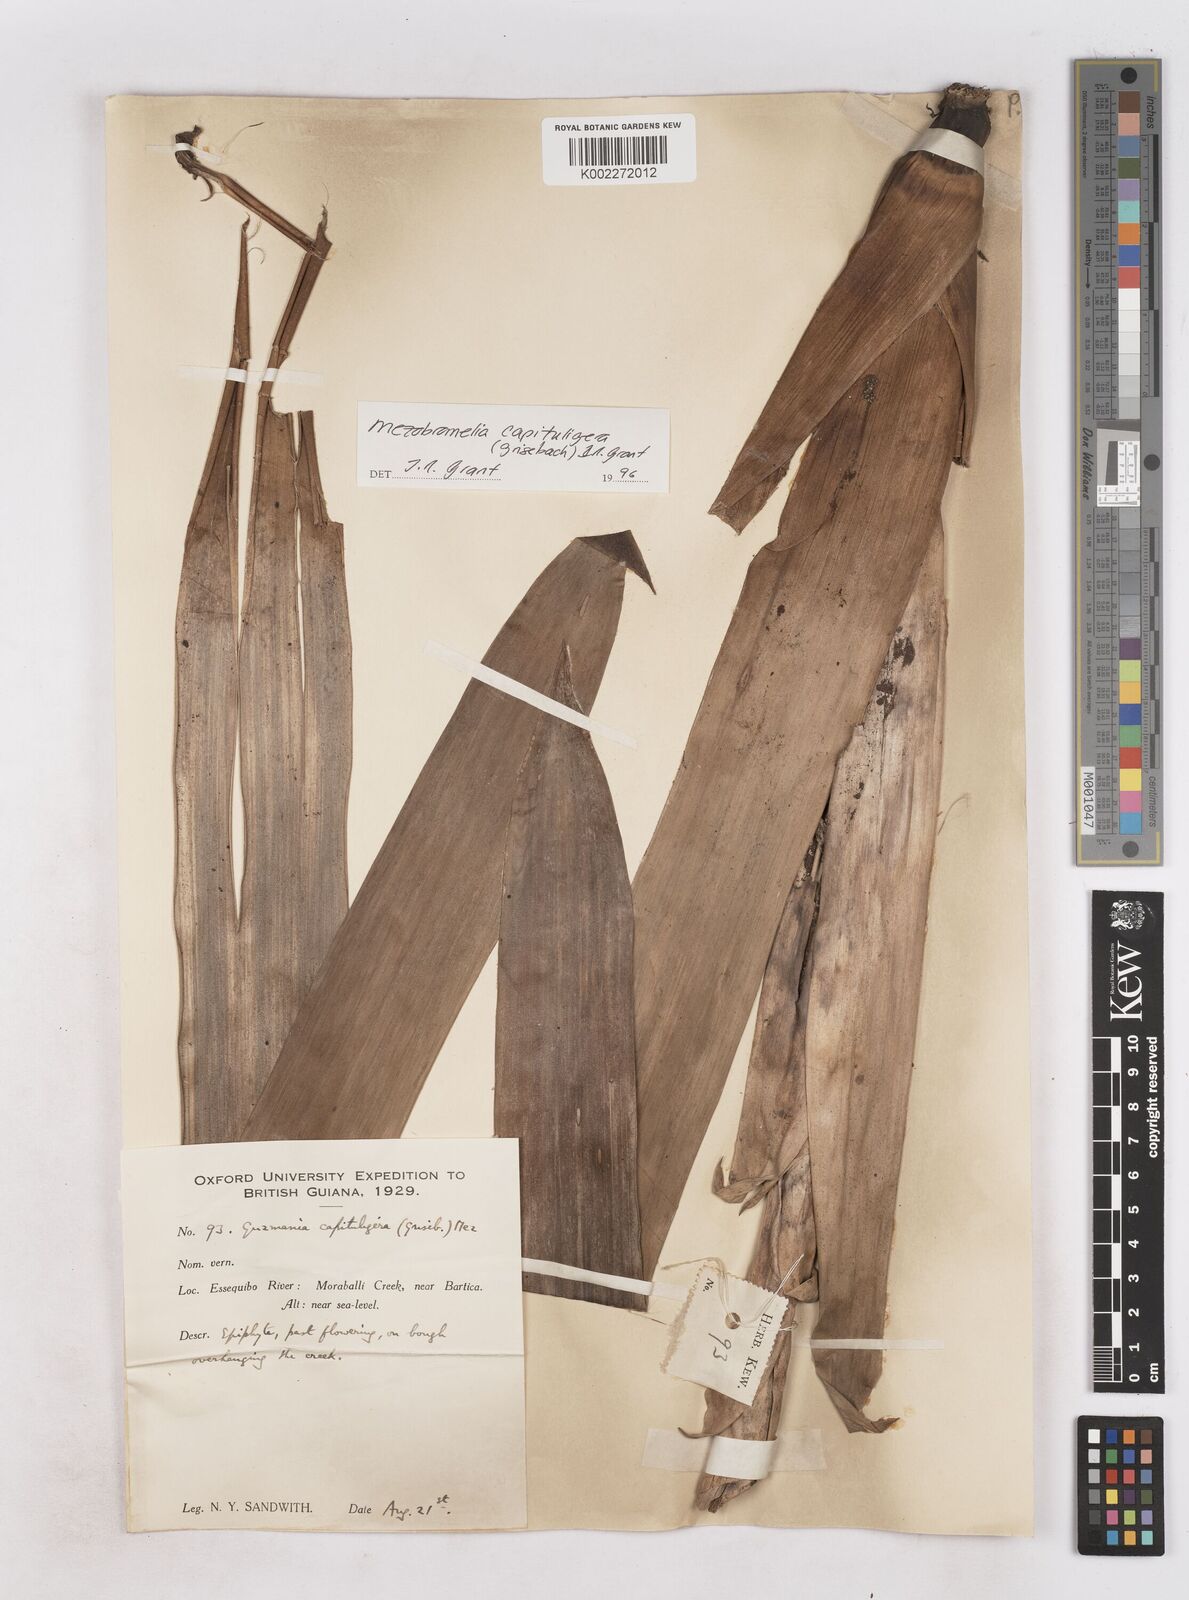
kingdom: Plantae
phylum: Tracheophyta
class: Liliopsida
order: Poales
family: Bromeliaceae
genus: Werauhia
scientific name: Werauhia capitata
